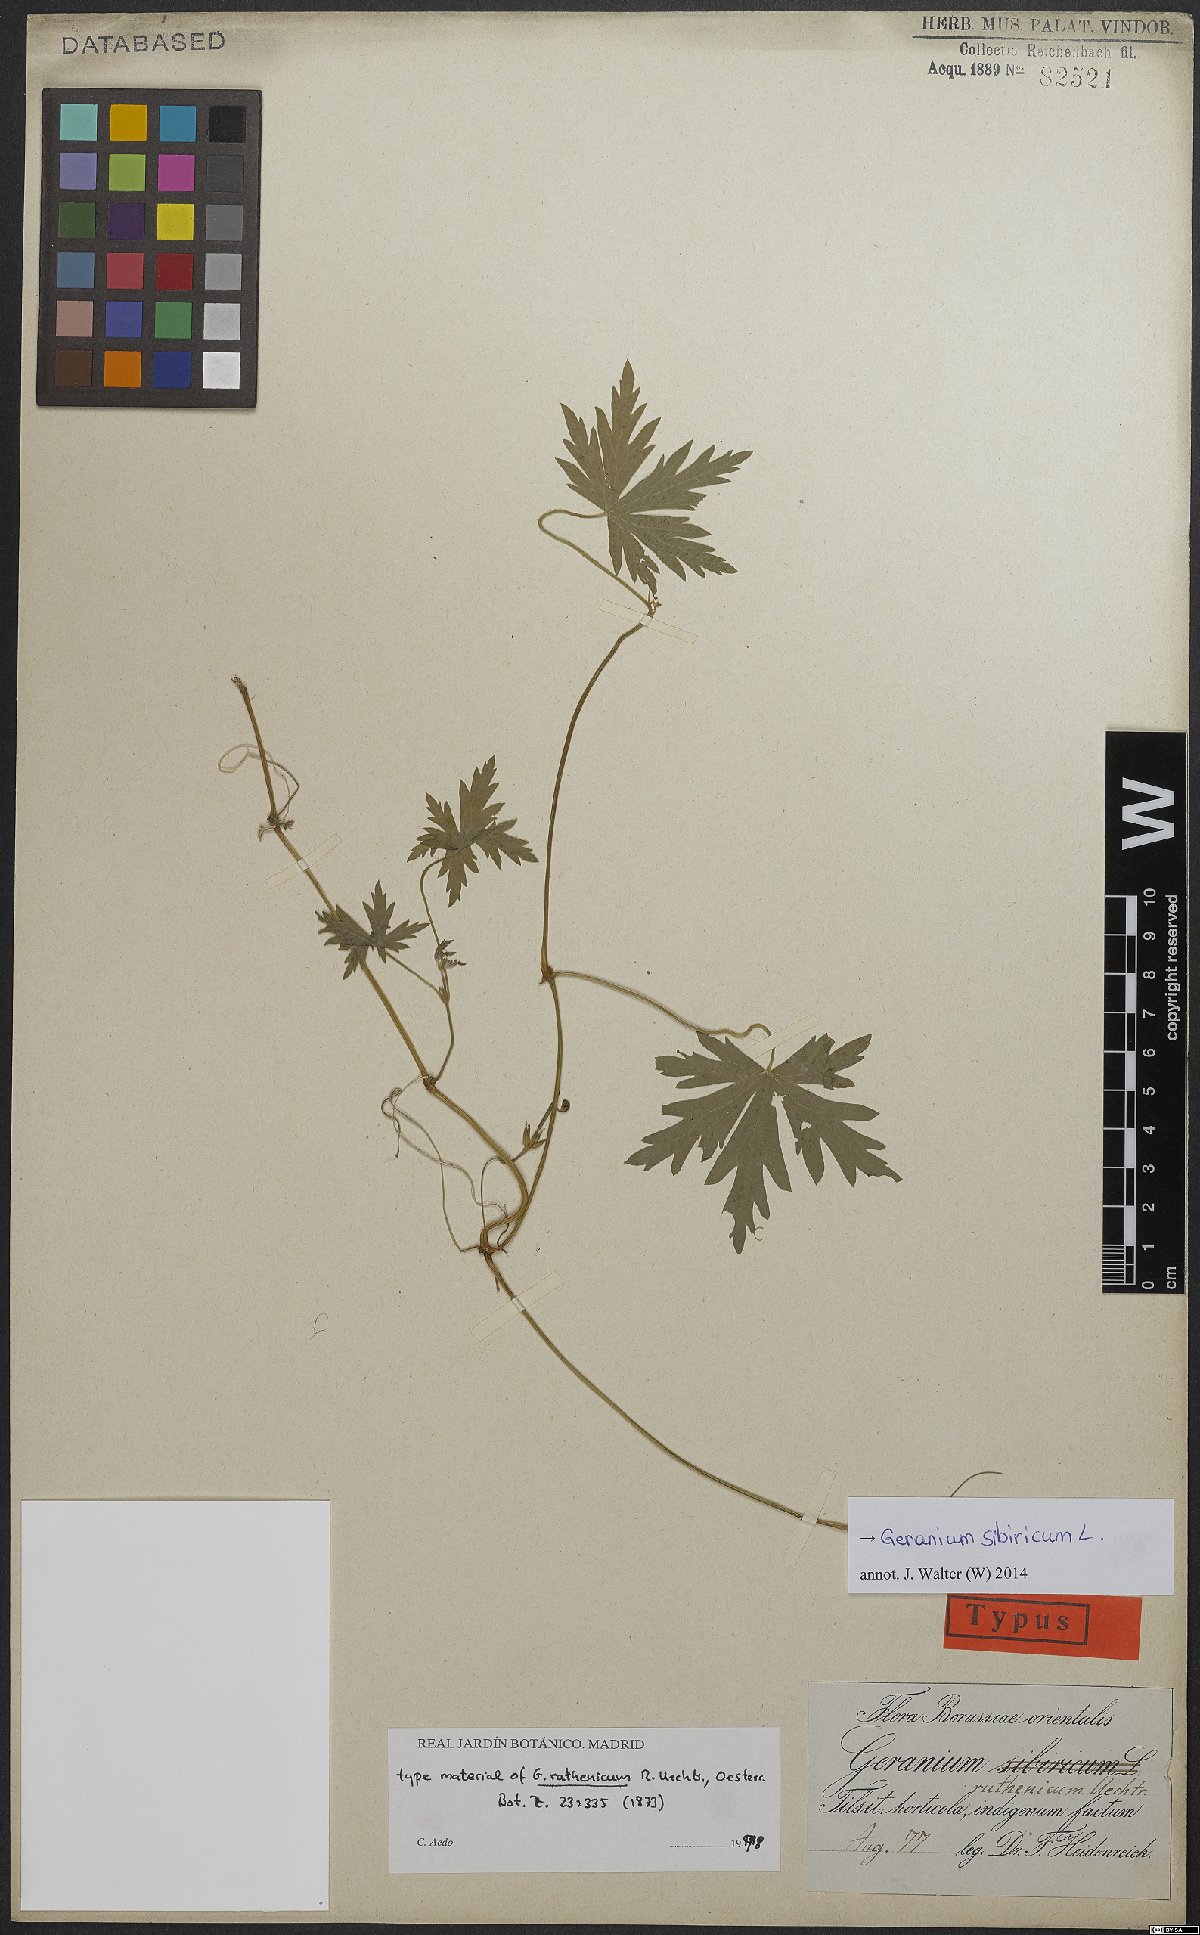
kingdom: Plantae
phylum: Tracheophyta
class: Magnoliopsida
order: Geraniales
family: Geraniaceae
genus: Geranium
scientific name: Geranium sibiricum
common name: Siberian crane's-bill
